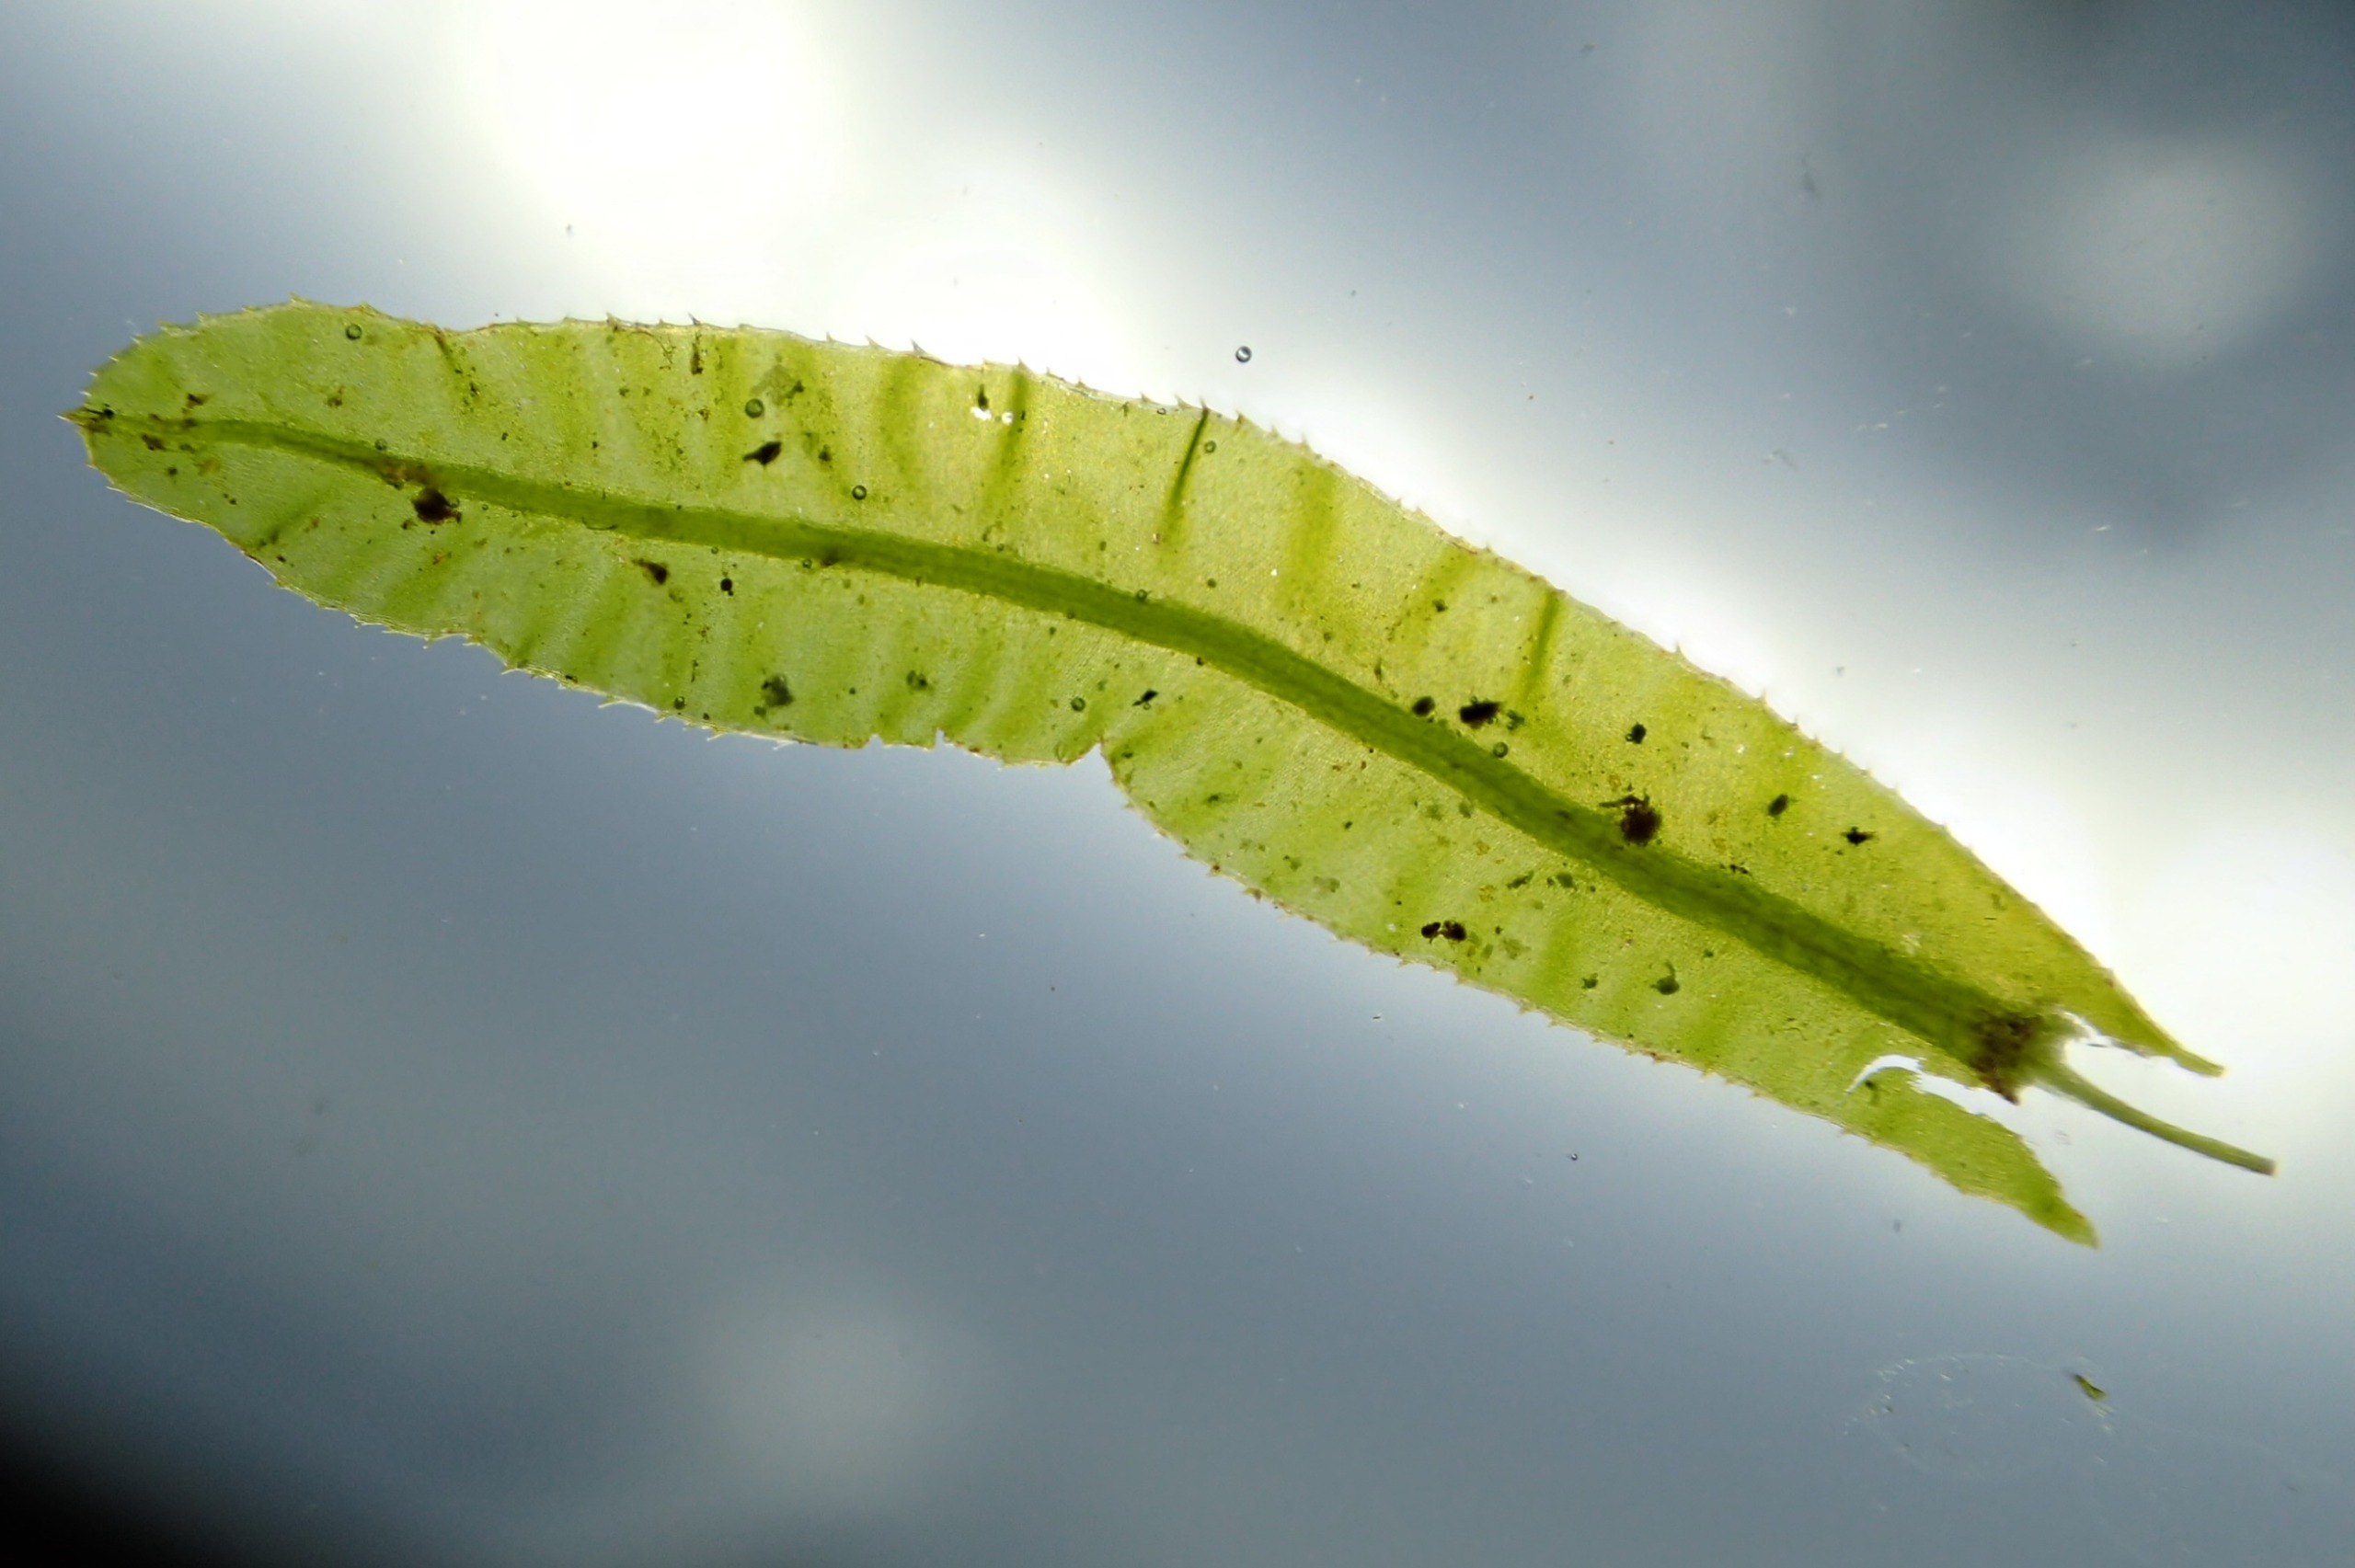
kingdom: Plantae
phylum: Bryophyta
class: Bryopsida
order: Bryales
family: Mniaceae
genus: Plagiomnium
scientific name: Plagiomnium undulatum
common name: Bølget krybstjerne
